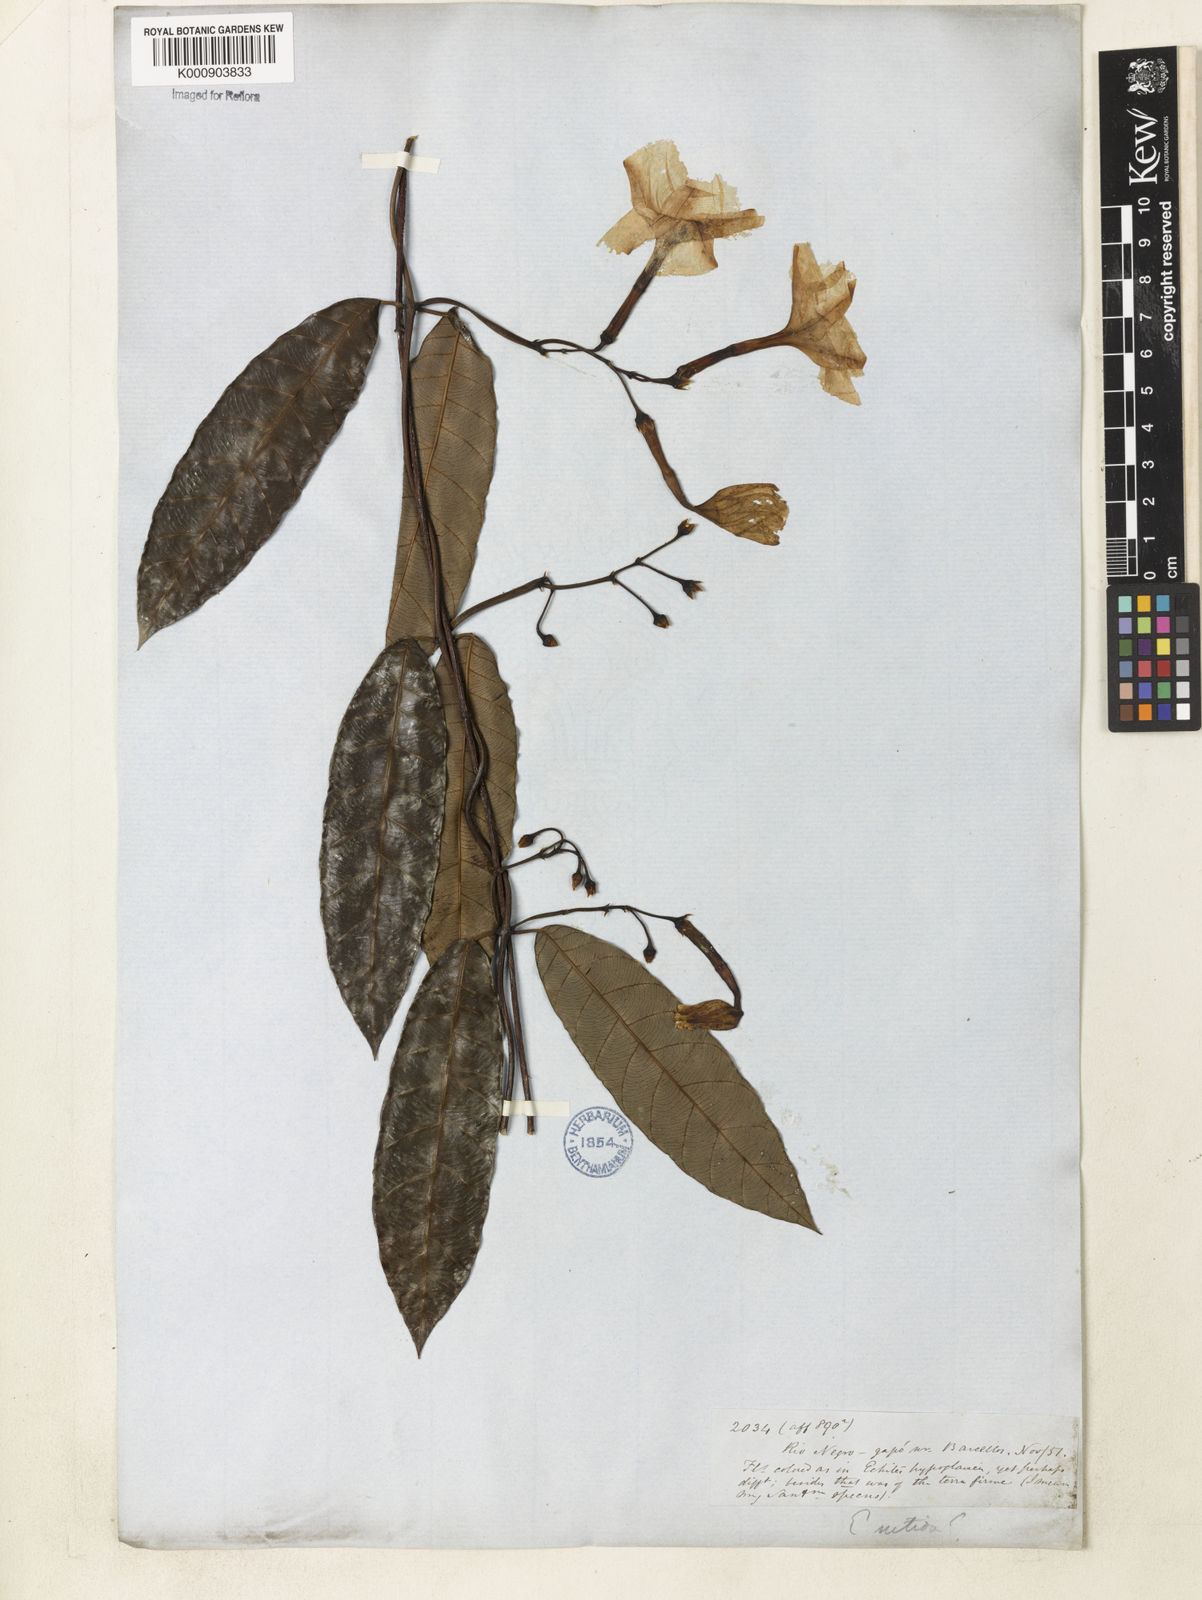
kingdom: Plantae
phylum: Tracheophyta
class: Magnoliopsida
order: Gentianales
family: Apocynaceae
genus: Odontadenia
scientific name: Odontadenia
